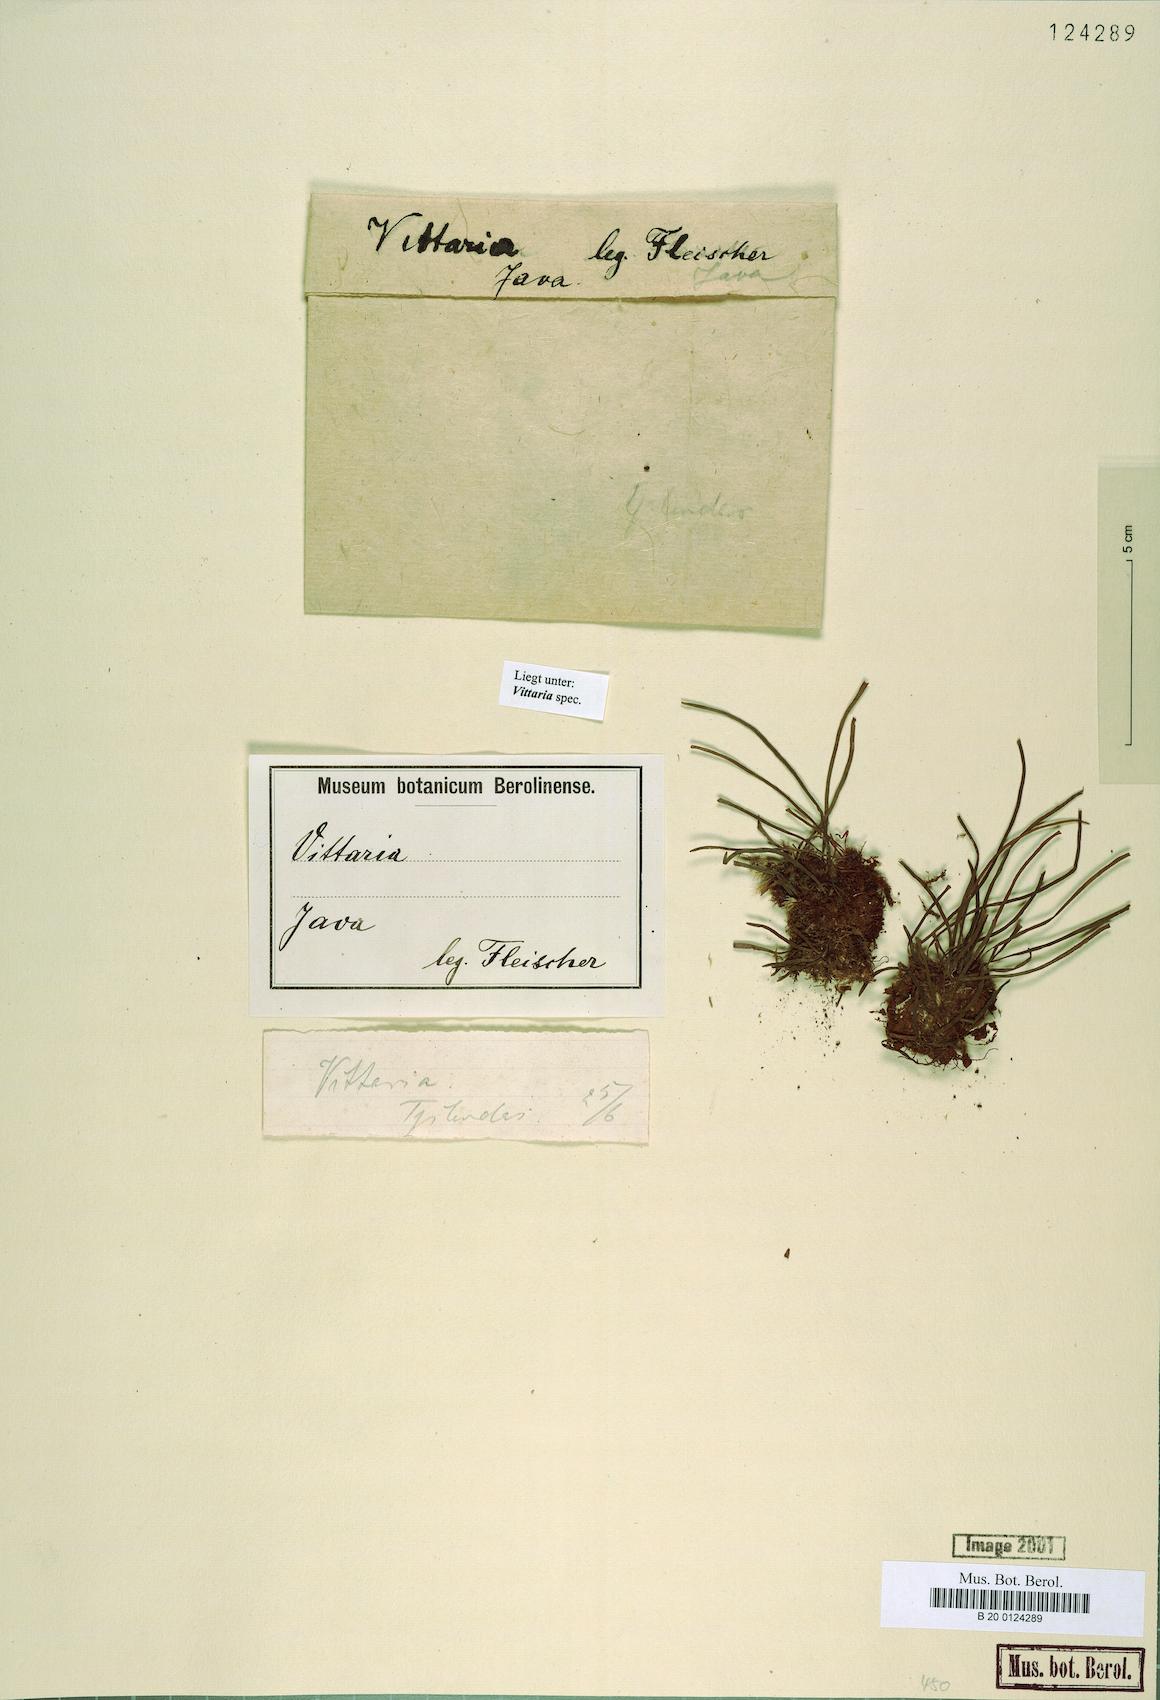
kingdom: Plantae
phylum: Tracheophyta
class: Polypodiopsida
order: Polypodiales
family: Pteridaceae
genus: Vittaria
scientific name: Vittaria
